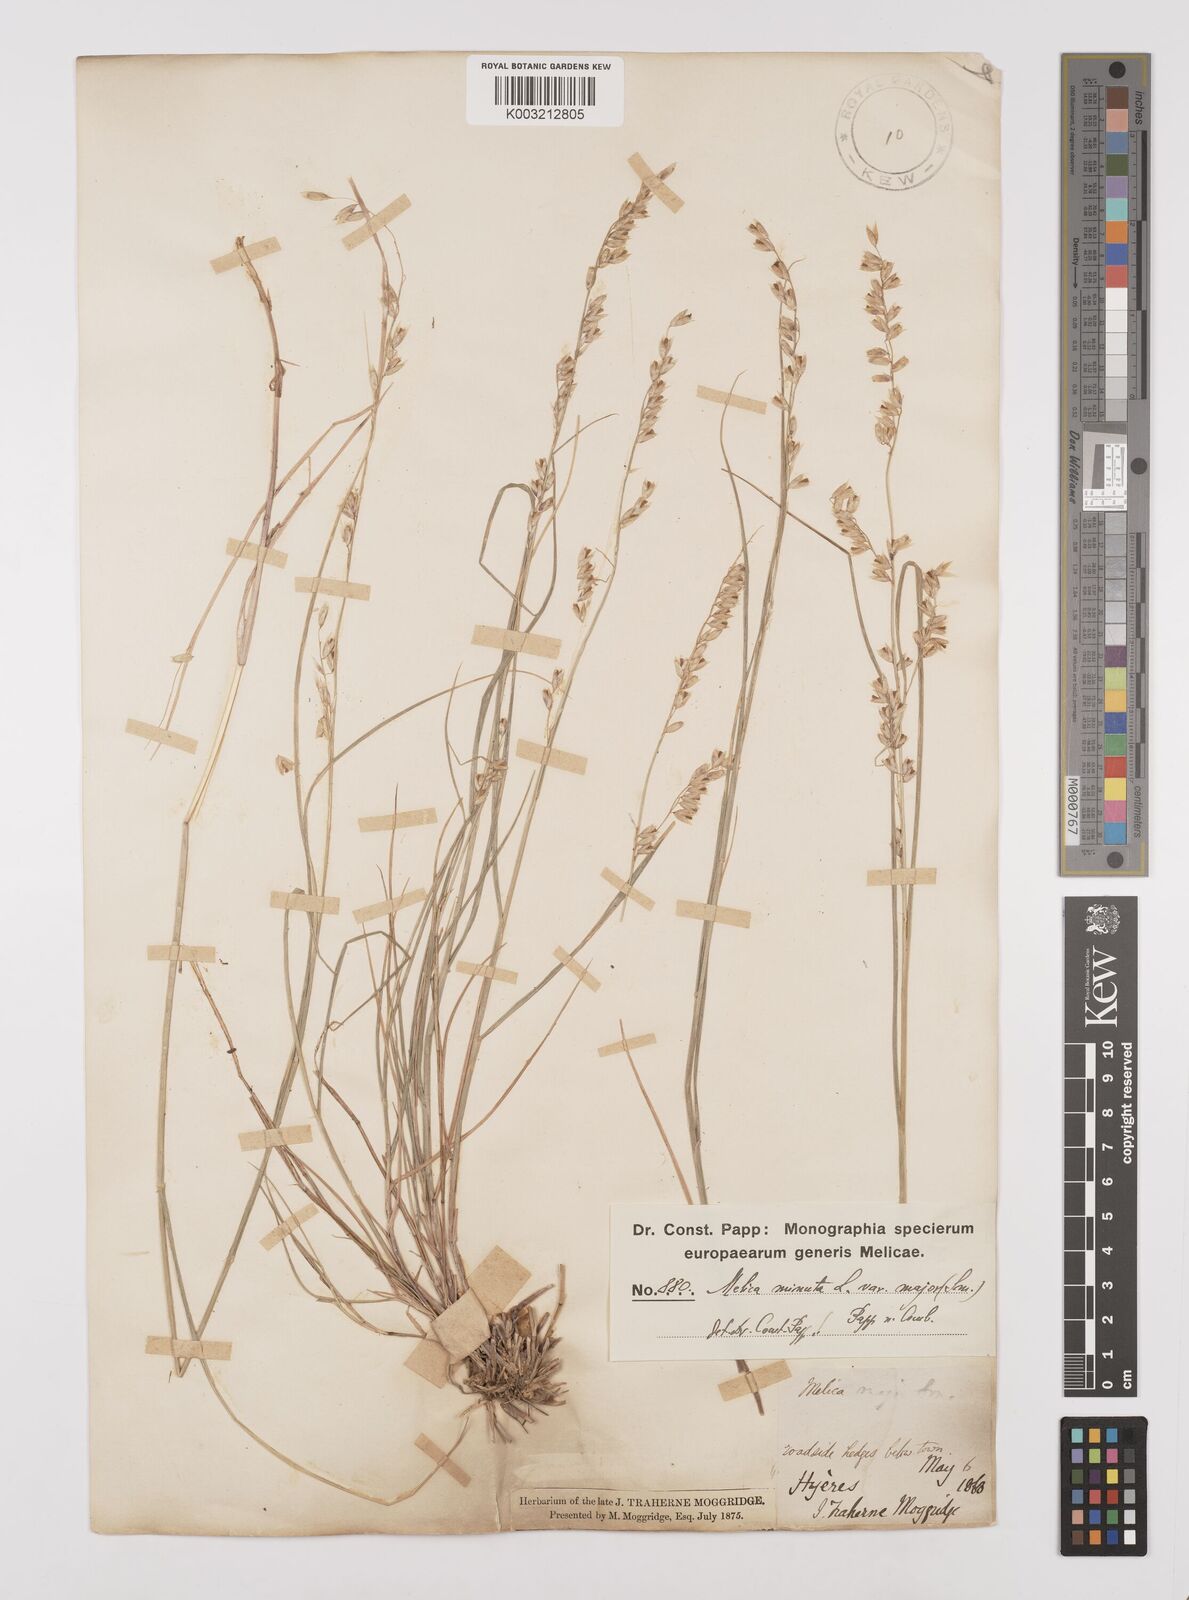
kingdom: Plantae
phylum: Tracheophyta
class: Liliopsida
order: Poales
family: Poaceae
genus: Melica
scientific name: Melica minuta
